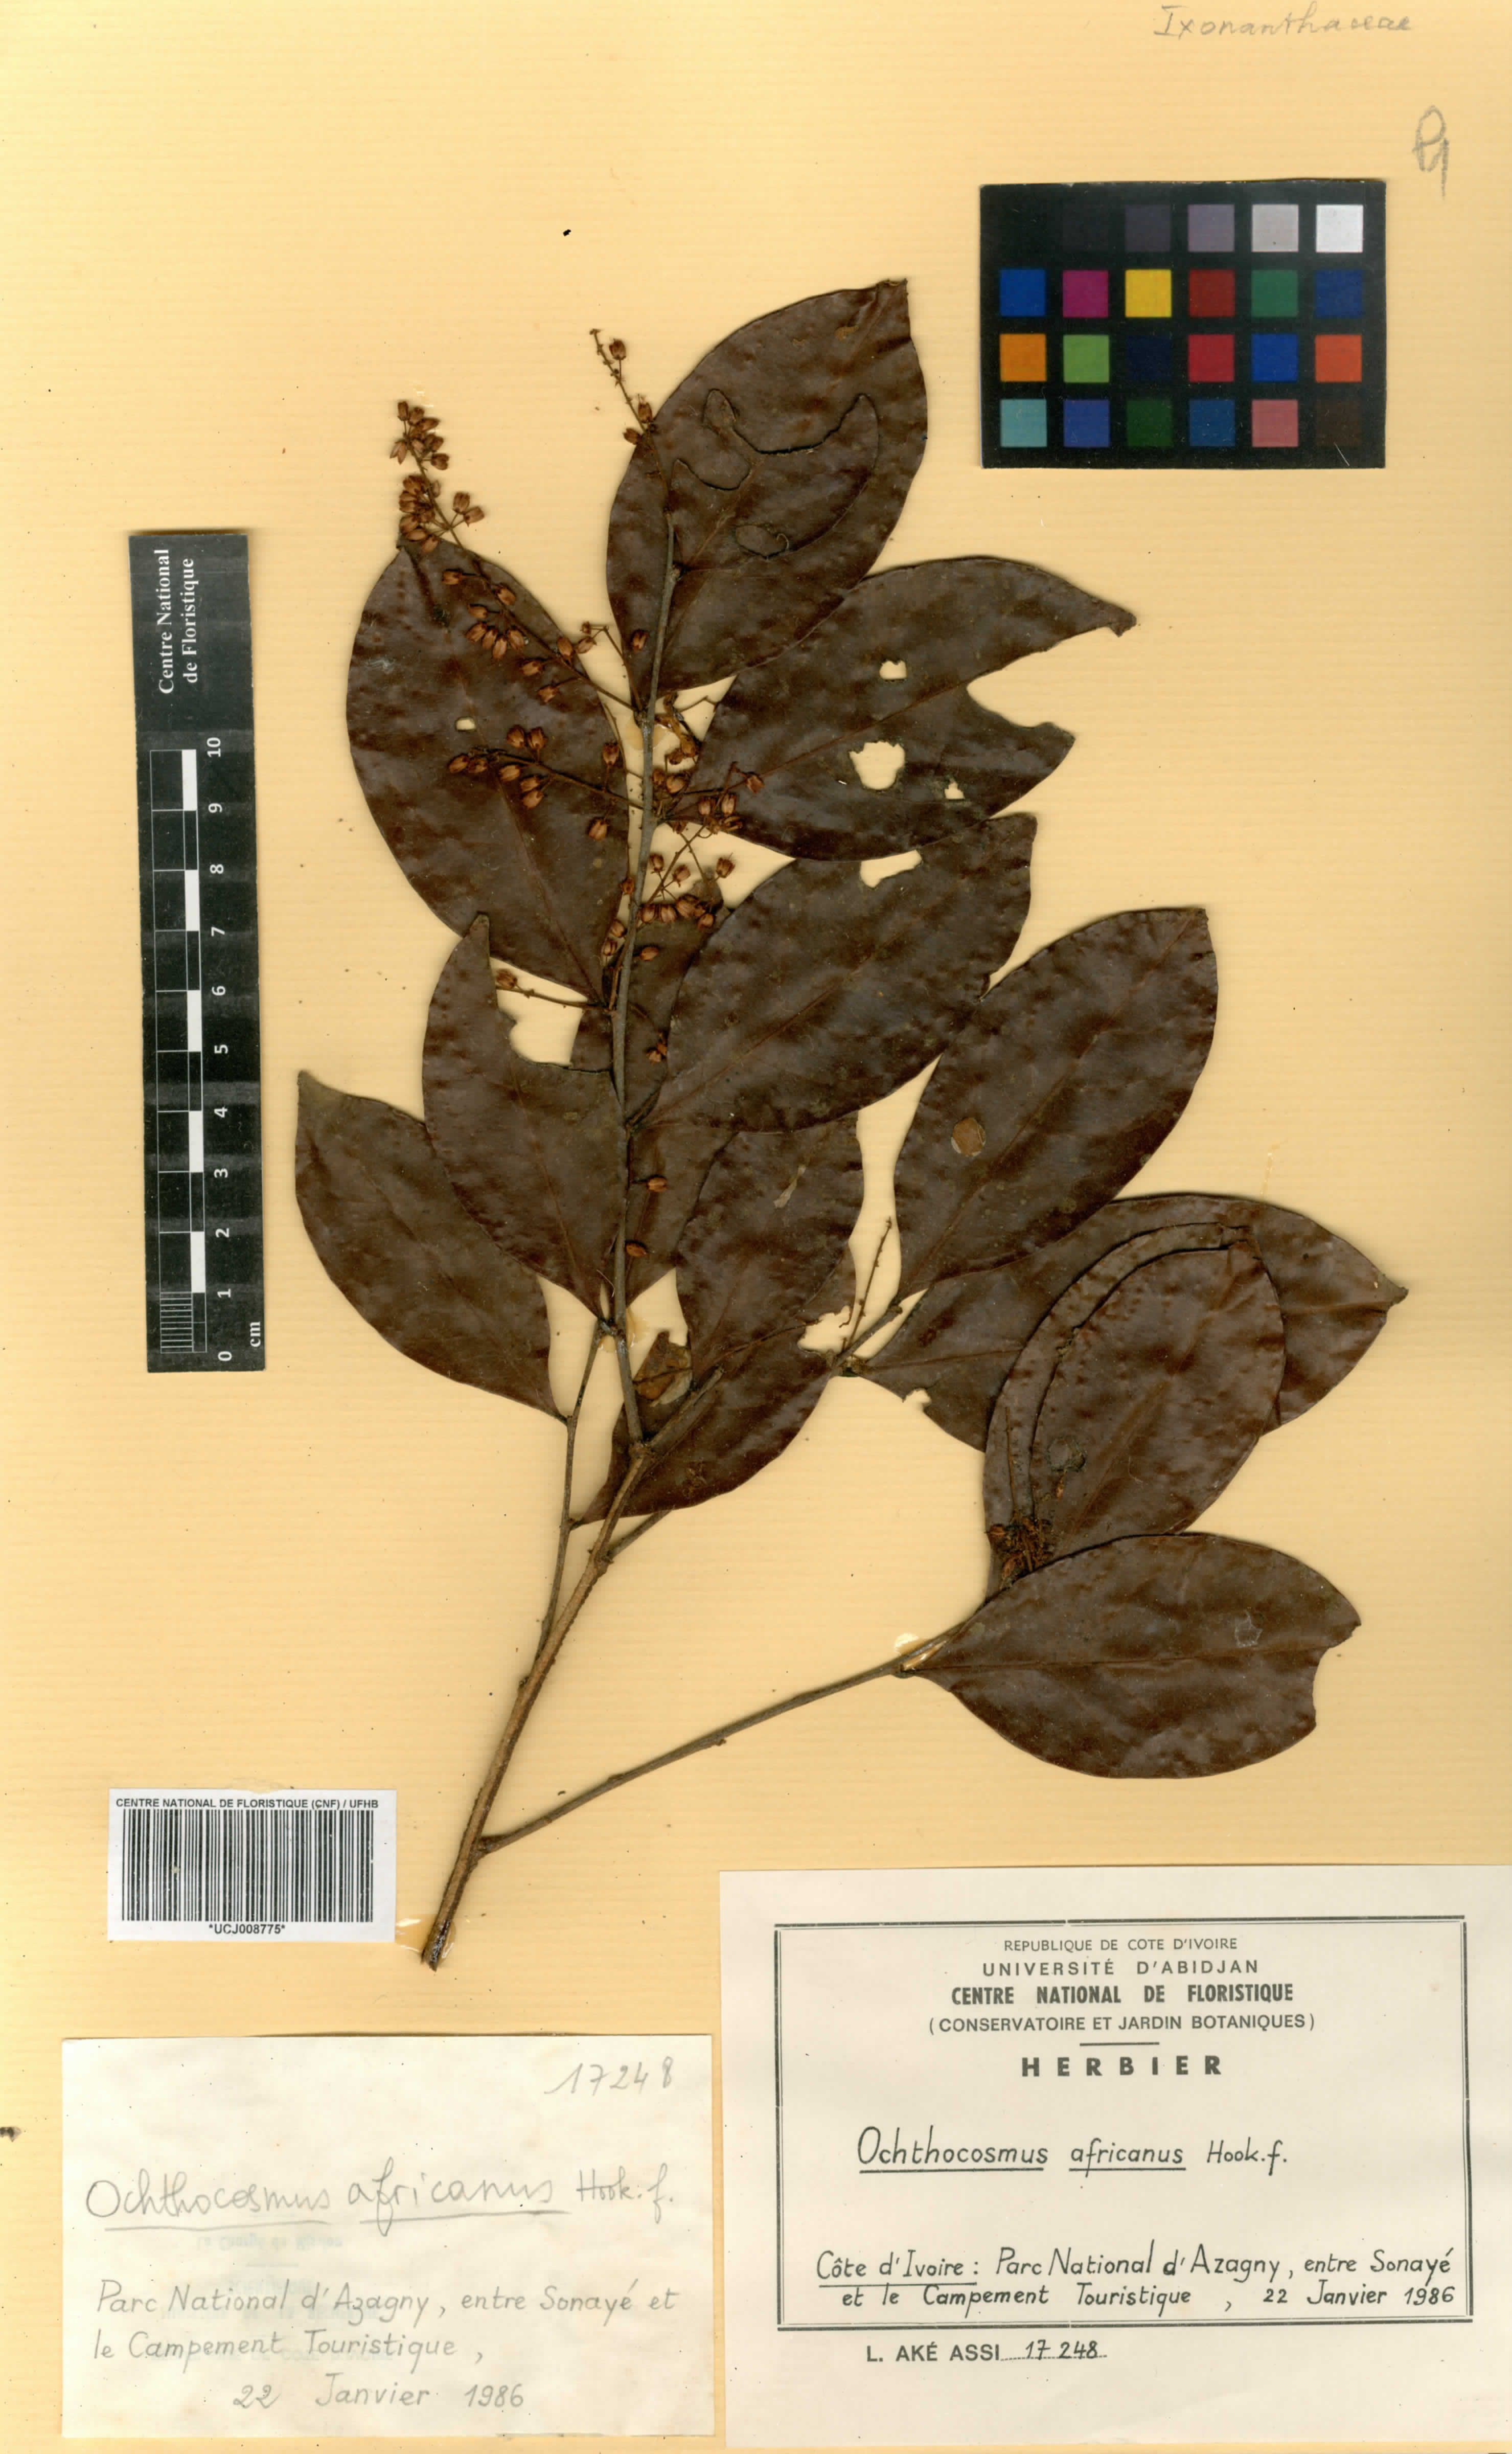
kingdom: Plantae
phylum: Tracheophyta
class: Magnoliopsida
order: Malpighiales
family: Ixonanthaceae
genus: Phyllocosmus
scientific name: Phyllocosmus africanus
